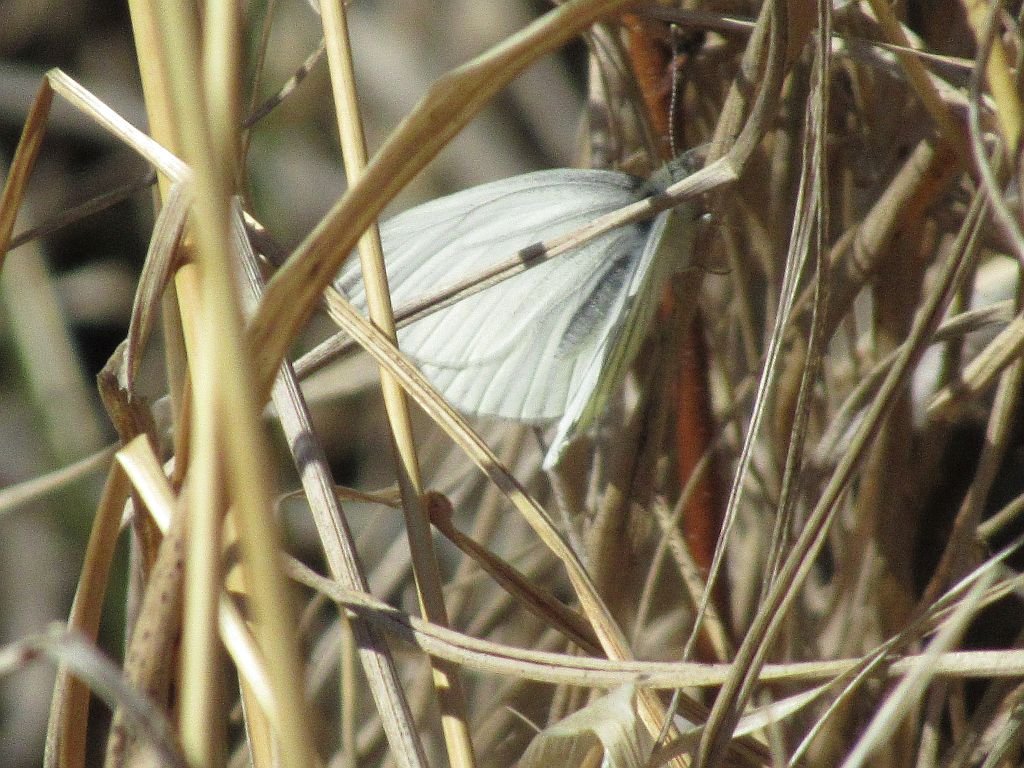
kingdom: Animalia
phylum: Arthropoda
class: Insecta
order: Lepidoptera
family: Pieridae
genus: Pieris
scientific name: Pieris oleracea
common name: Mustard White
